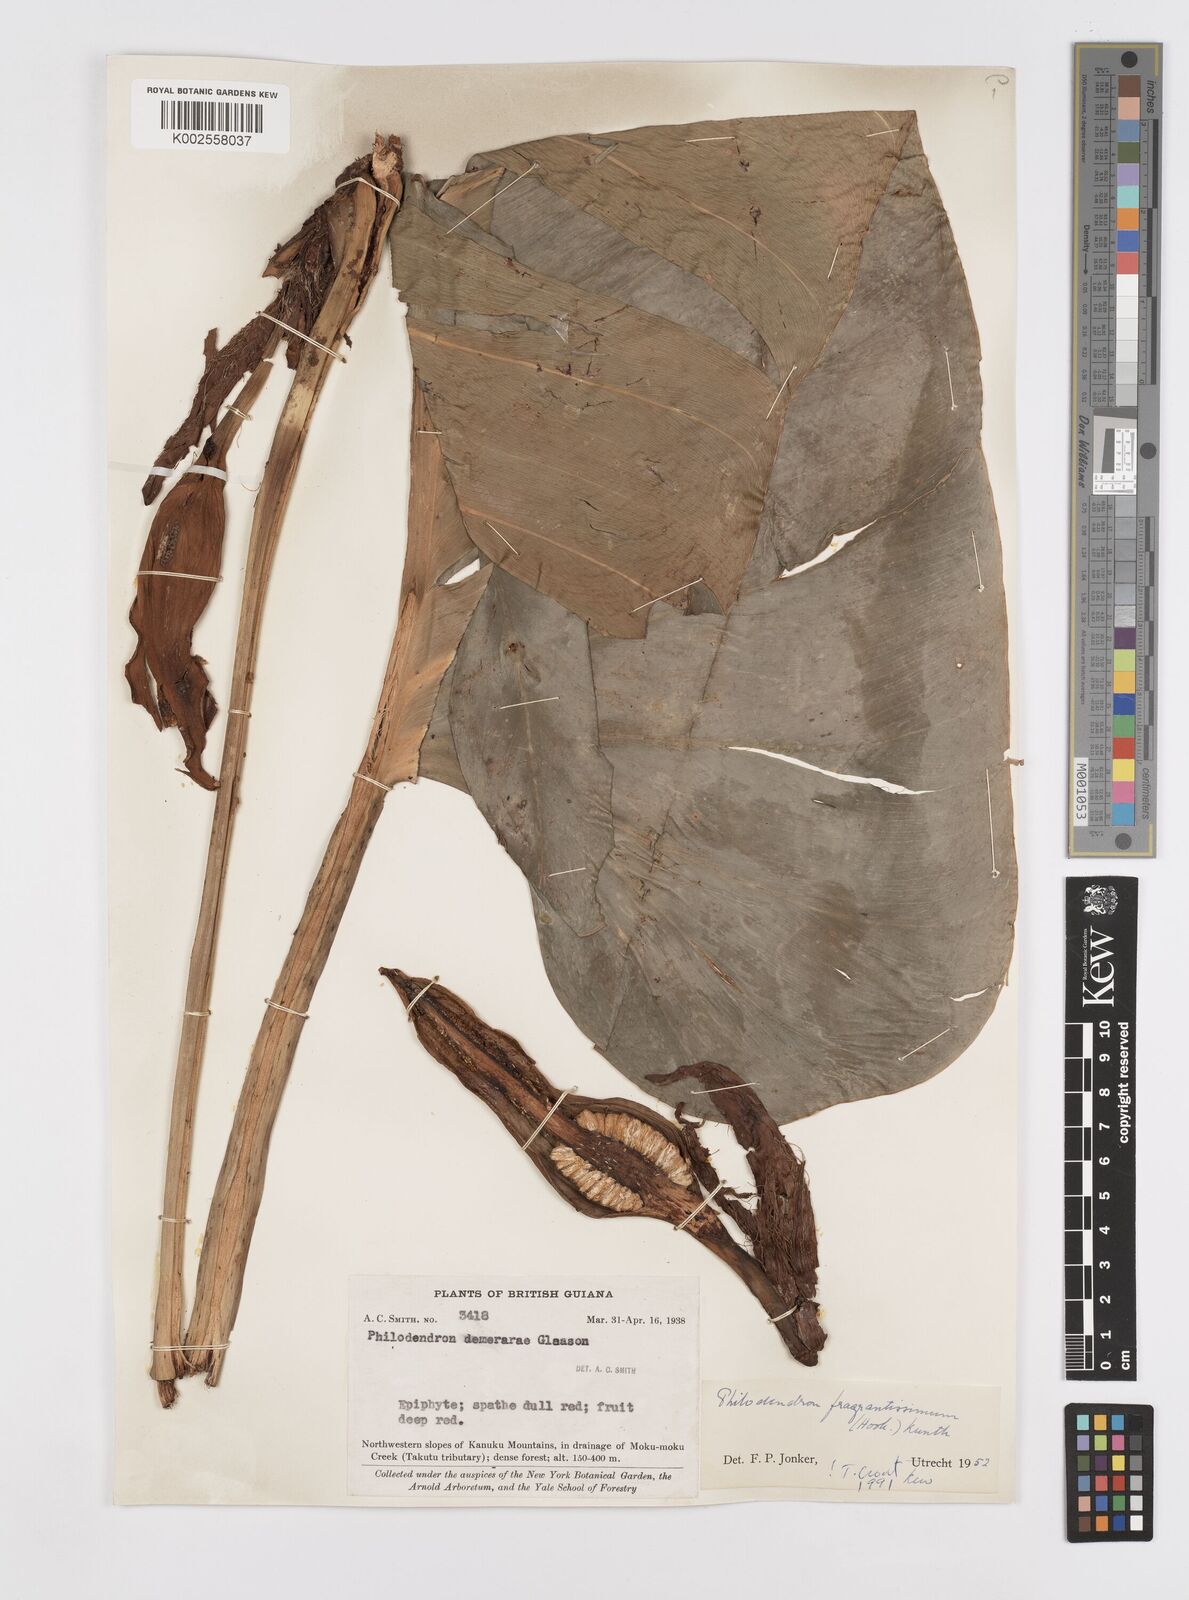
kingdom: Plantae
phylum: Tracheophyta
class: Liliopsida
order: Alismatales
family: Araceae
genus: Philodendron
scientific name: Philodendron fragrantissimum
